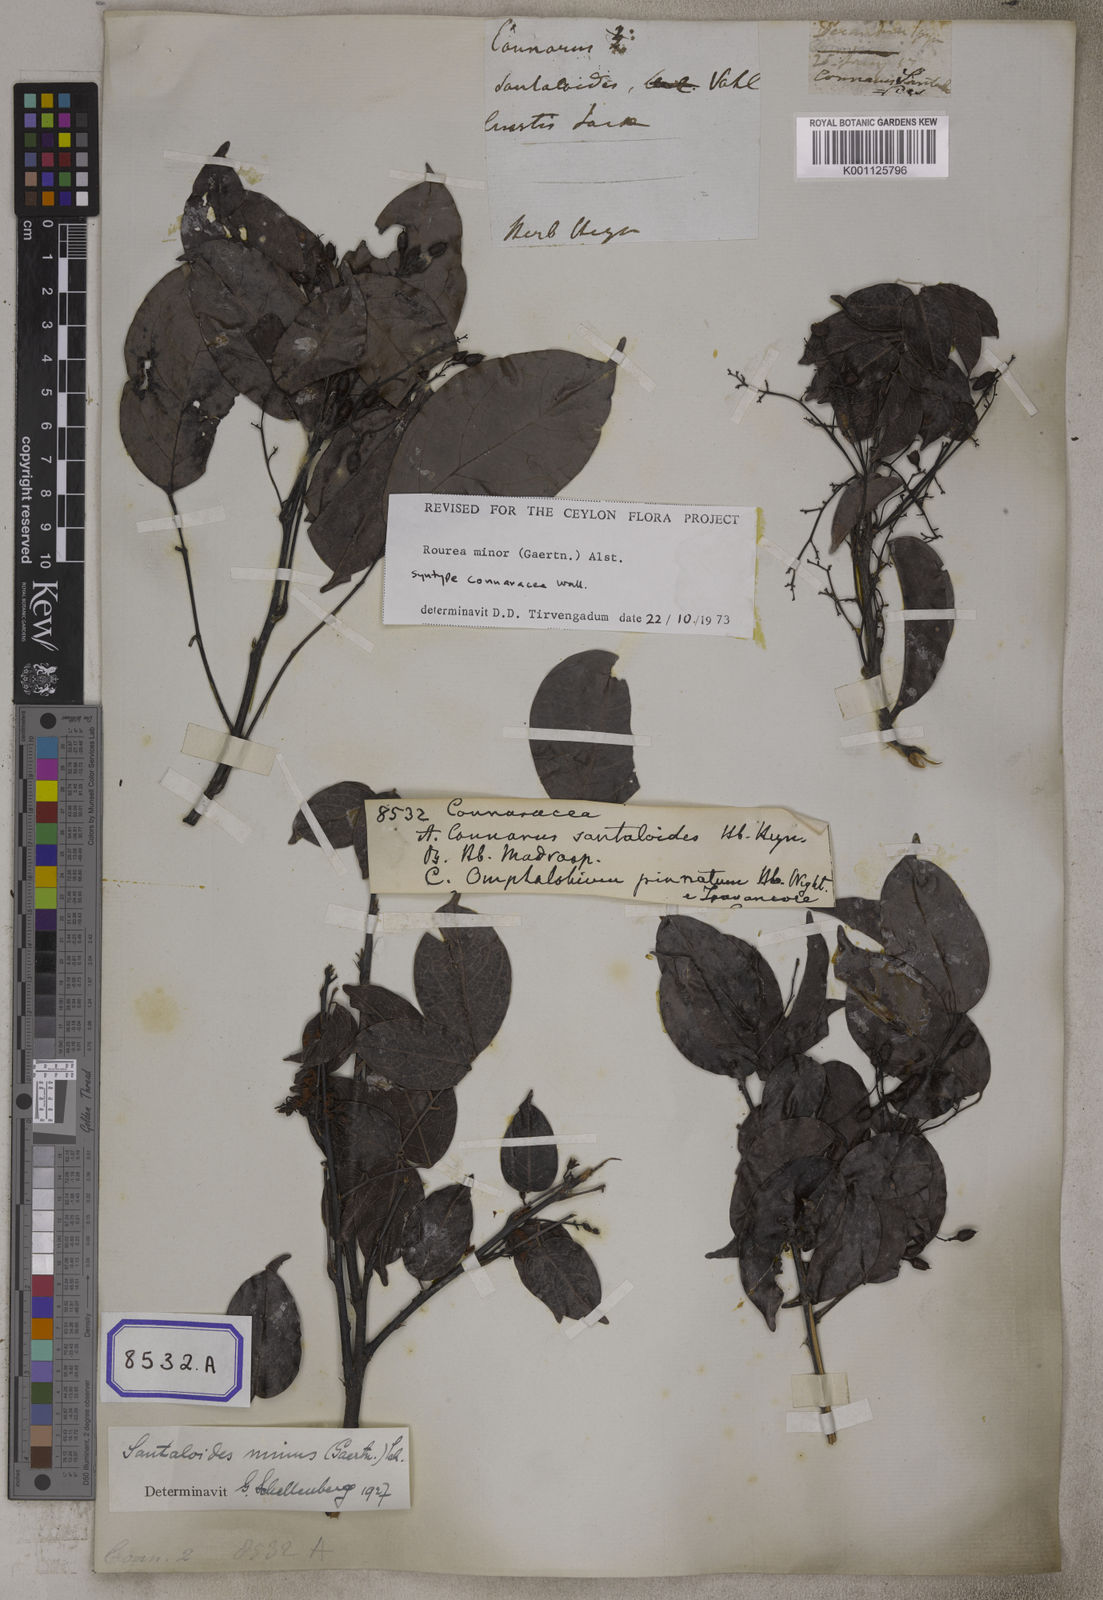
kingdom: Plantae
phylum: Tracheophyta
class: Magnoliopsida
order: Oxalidales
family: Connaraceae
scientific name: Connaraceae
